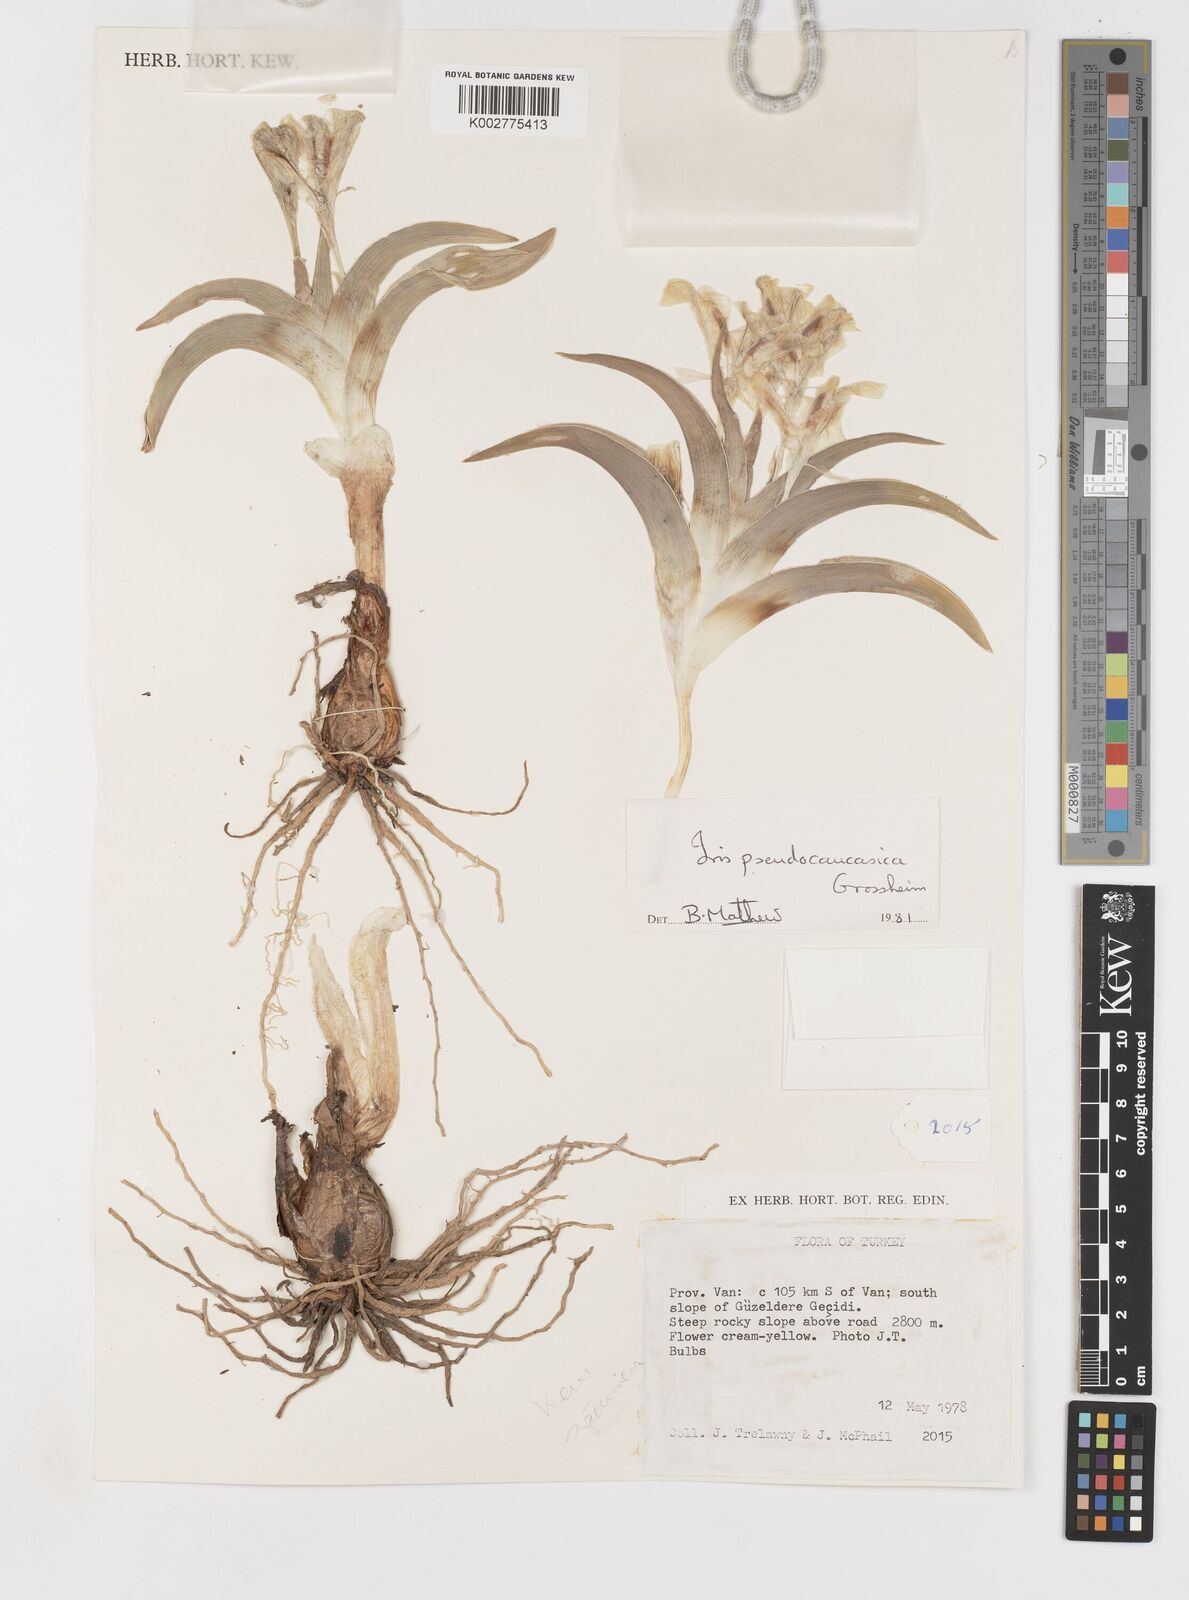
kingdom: Plantae
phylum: Tracheophyta
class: Liliopsida
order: Asparagales
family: Iridaceae
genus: Iris
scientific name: Iris pseudocaucasica
